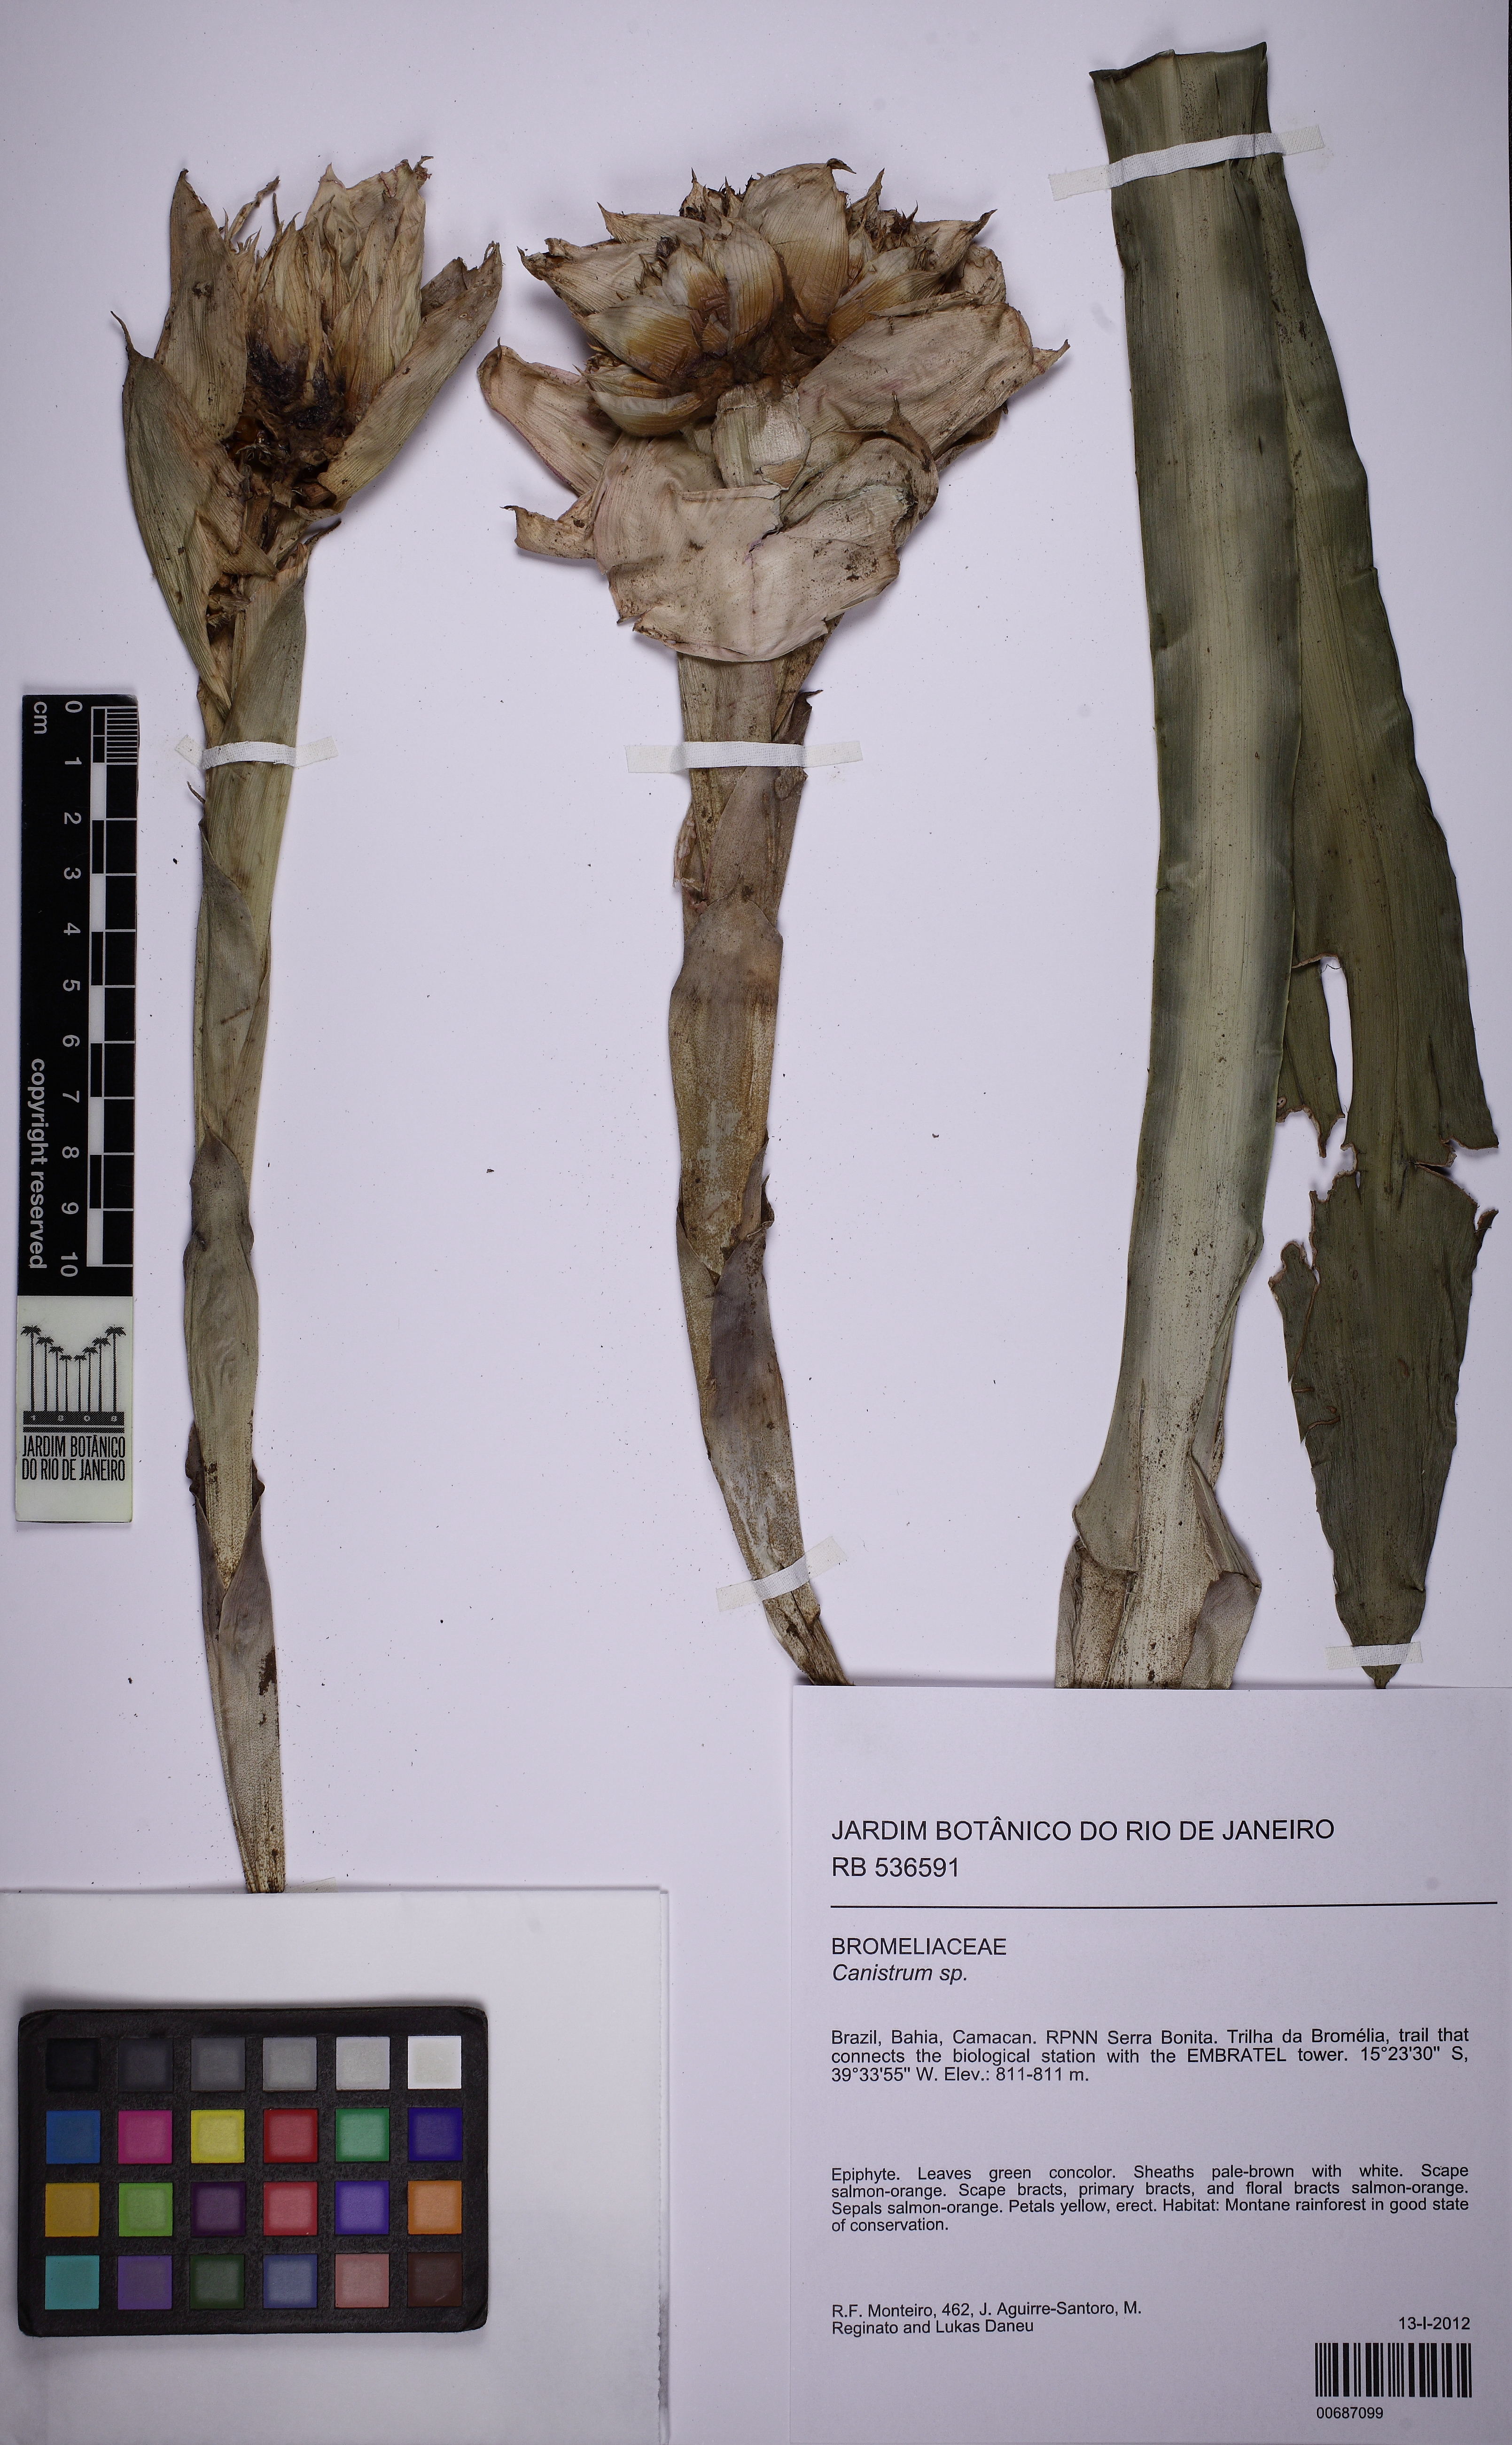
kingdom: Plantae
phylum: Tracheophyta
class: Liliopsida
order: Poales
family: Bromeliaceae
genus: Canistrum
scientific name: Canistrum
